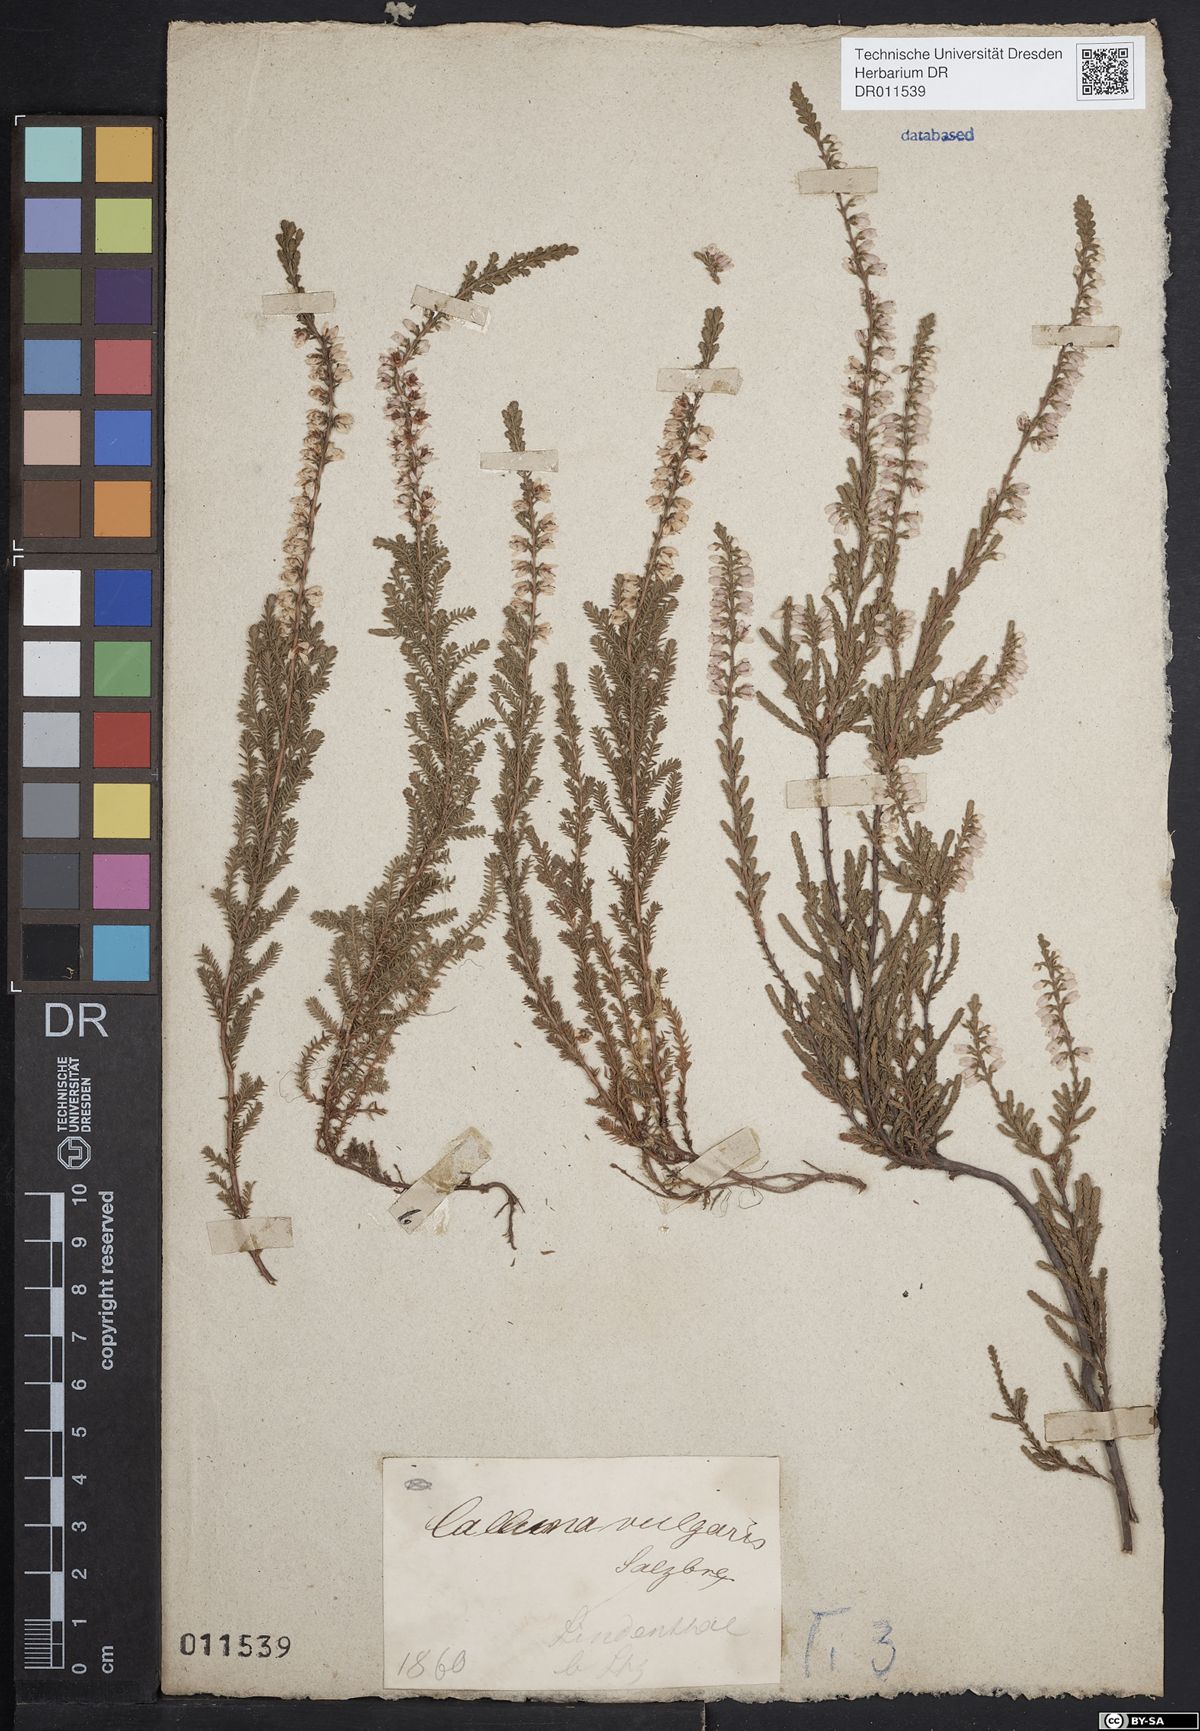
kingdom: Plantae
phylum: Tracheophyta
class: Magnoliopsida
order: Ericales
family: Ericaceae
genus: Calluna
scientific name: Calluna vulgaris
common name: Heather
